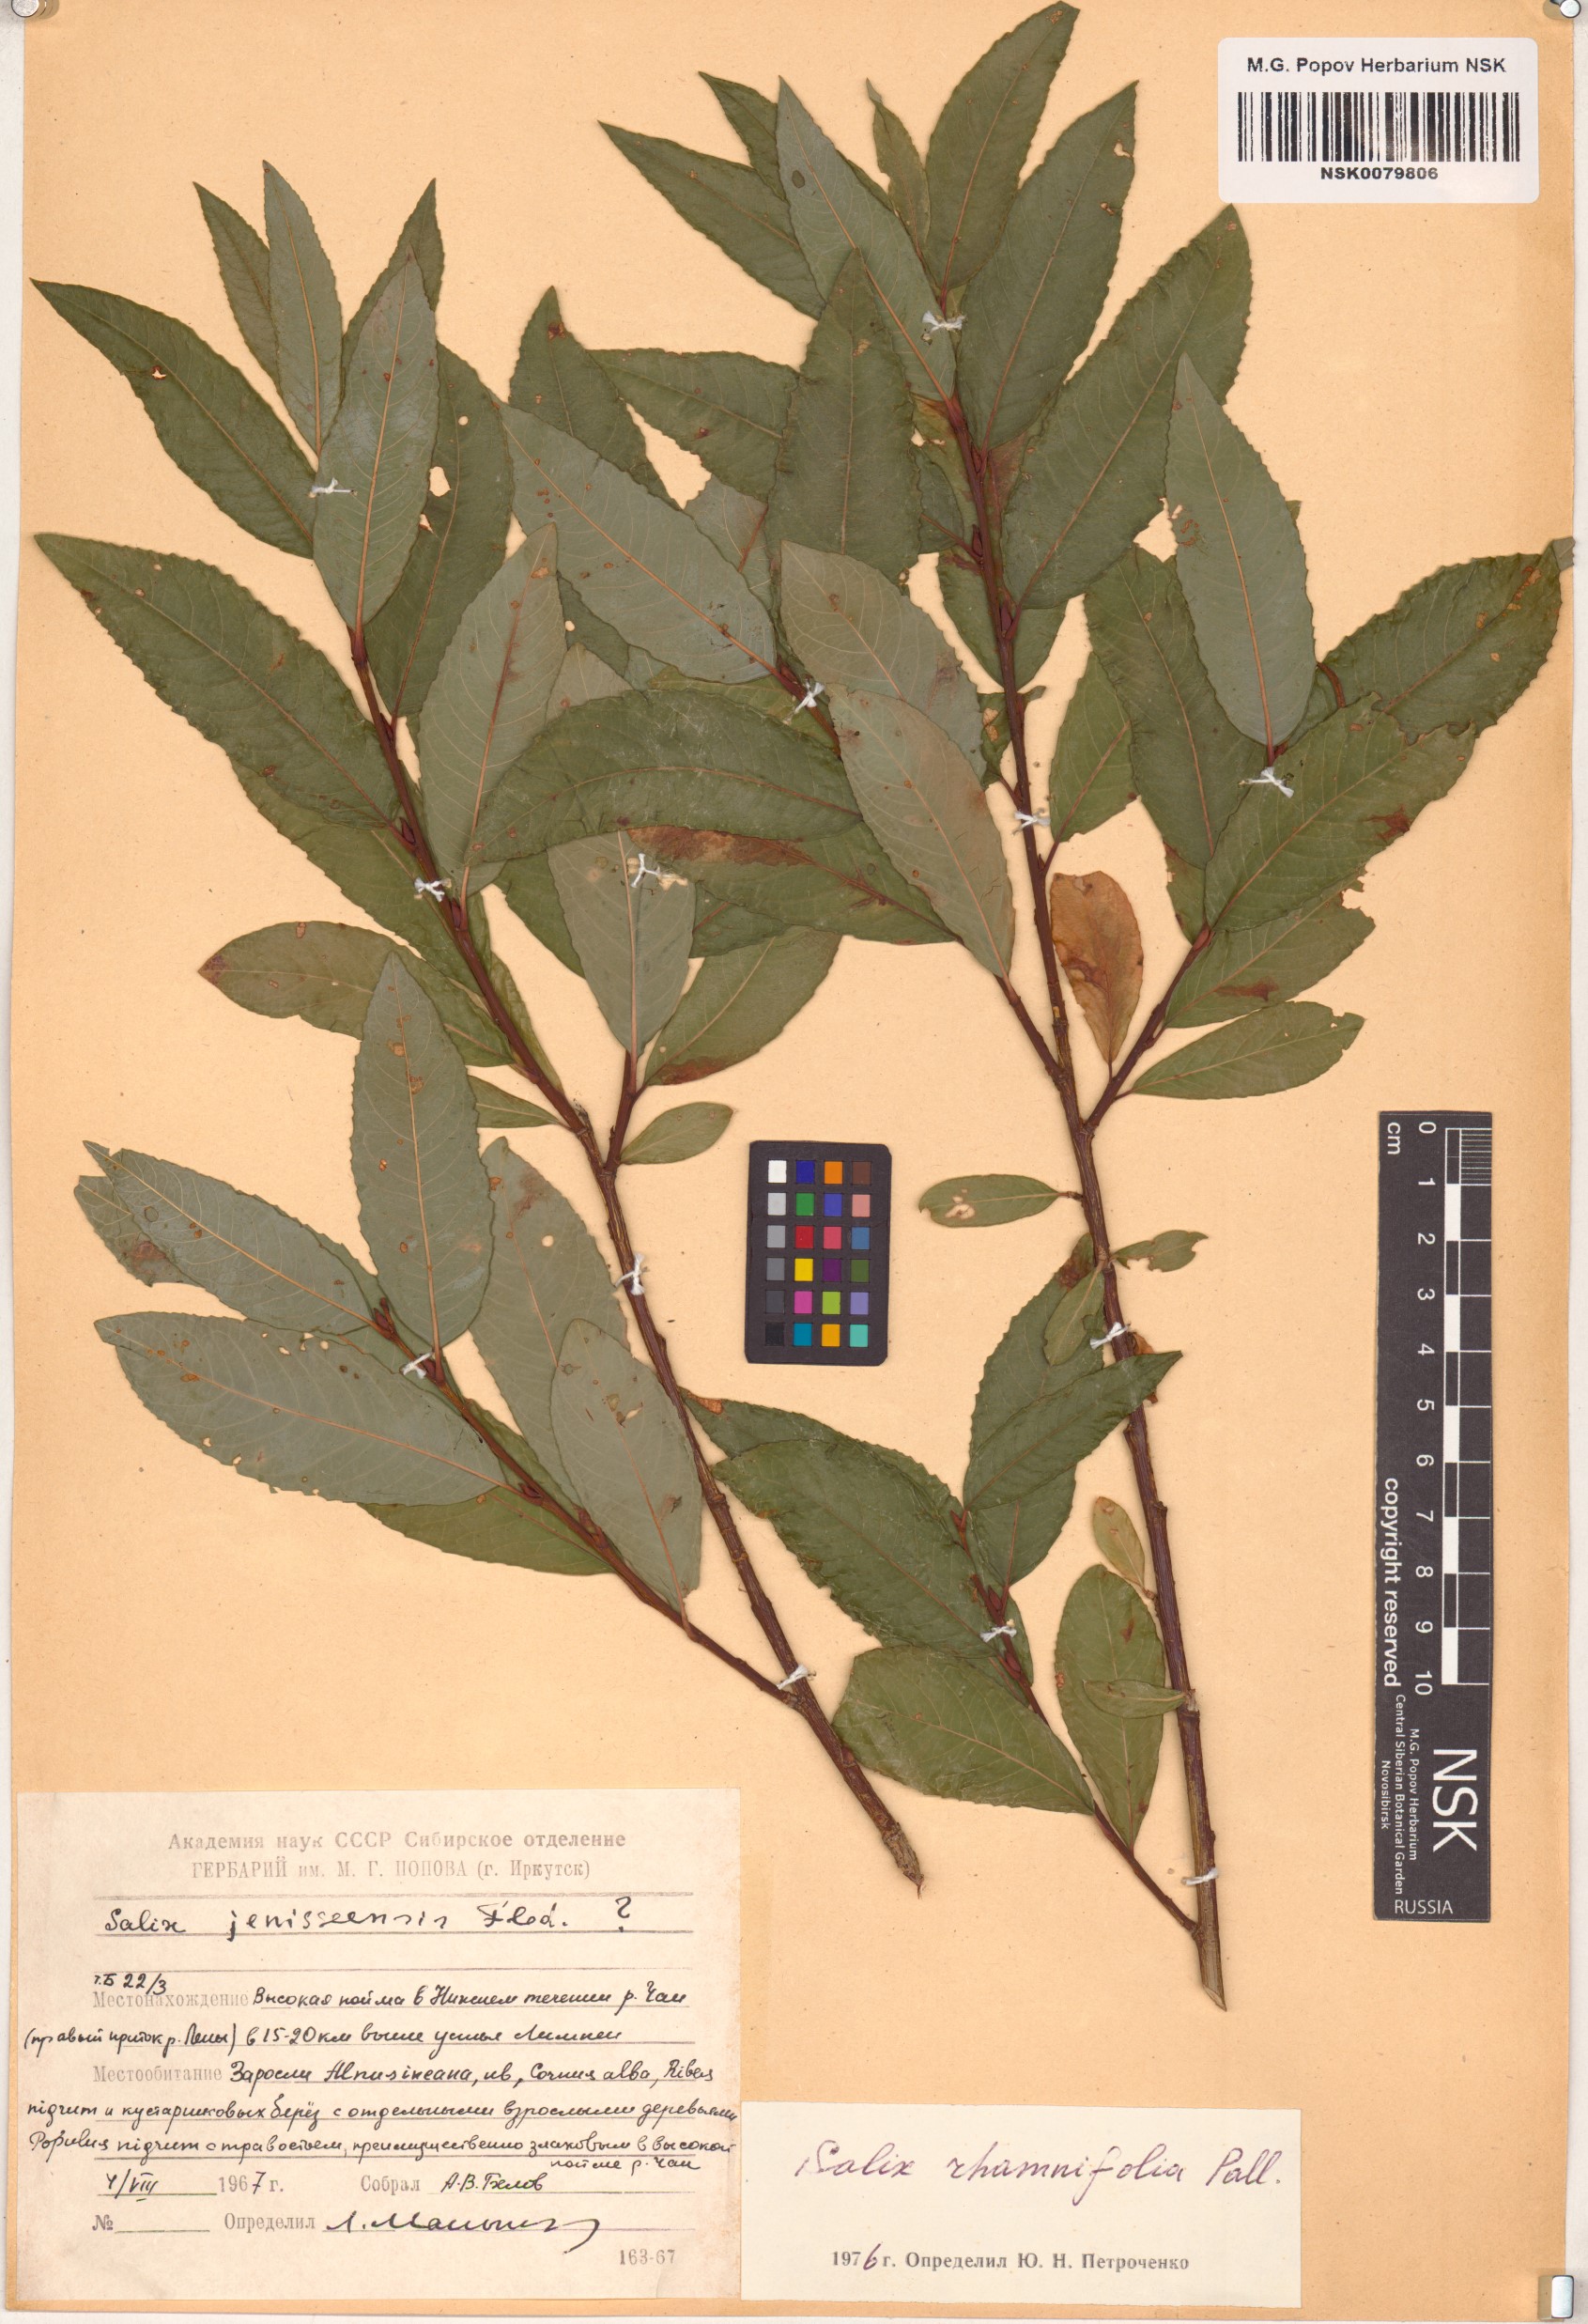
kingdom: Plantae
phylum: Tracheophyta
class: Magnoliopsida
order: Malpighiales
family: Salicaceae
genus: Salix
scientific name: Salix rhamnifolia
